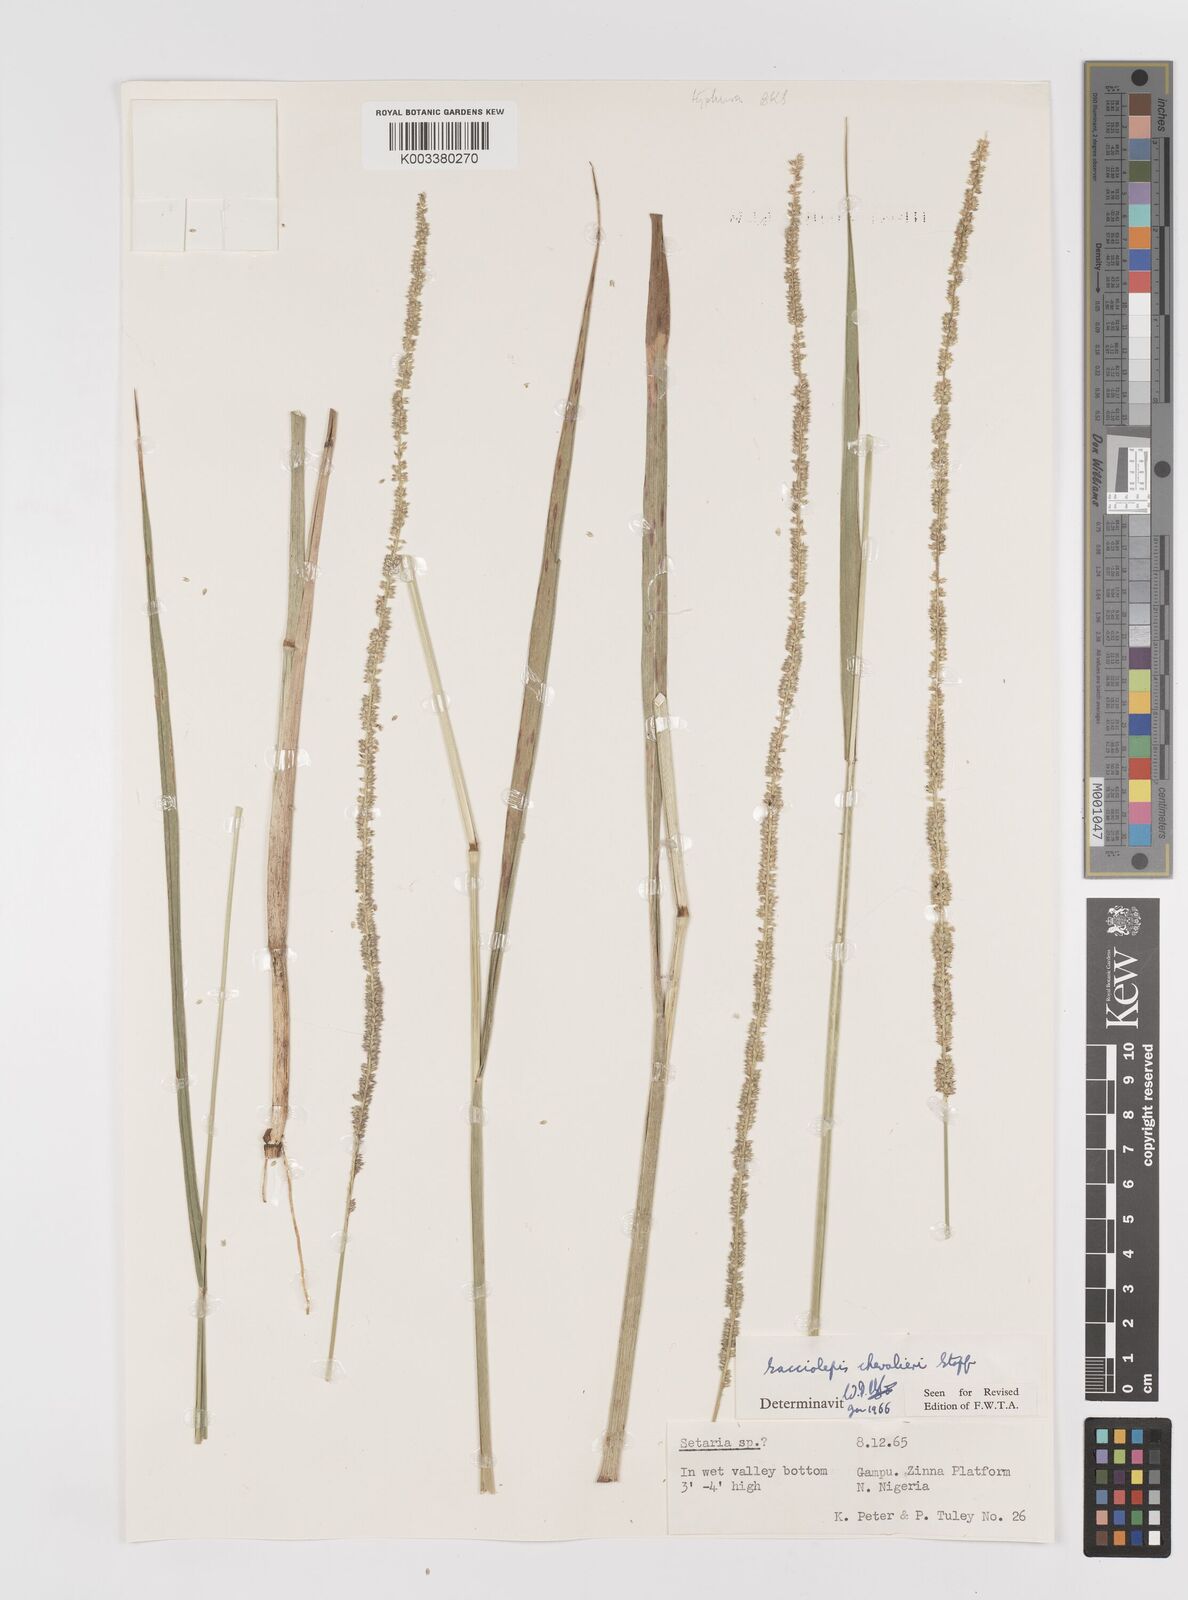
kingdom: Plantae
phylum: Tracheophyta
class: Liliopsida
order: Poales
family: Poaceae
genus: Sacciolepis
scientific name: Sacciolepis typhura
